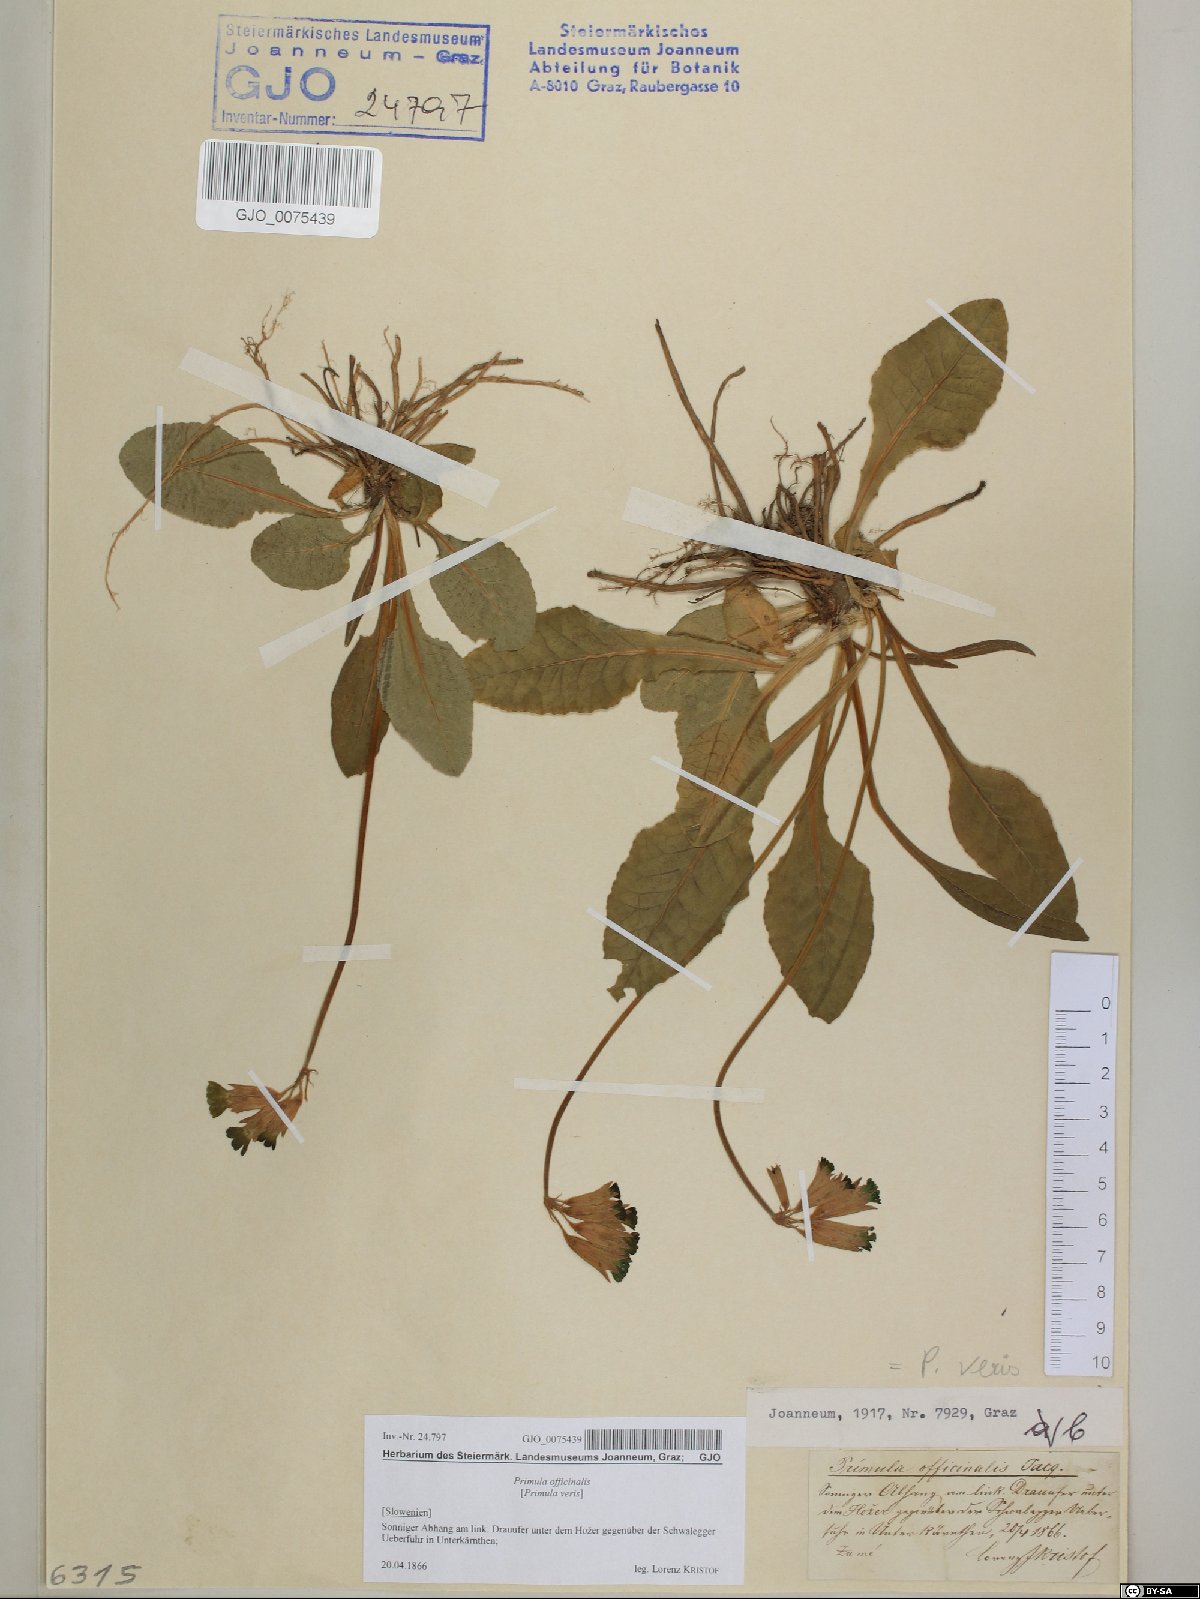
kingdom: Plantae
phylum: Tracheophyta
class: Magnoliopsida
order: Ericales
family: Primulaceae
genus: Primula
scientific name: Primula veris
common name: Cowslip
